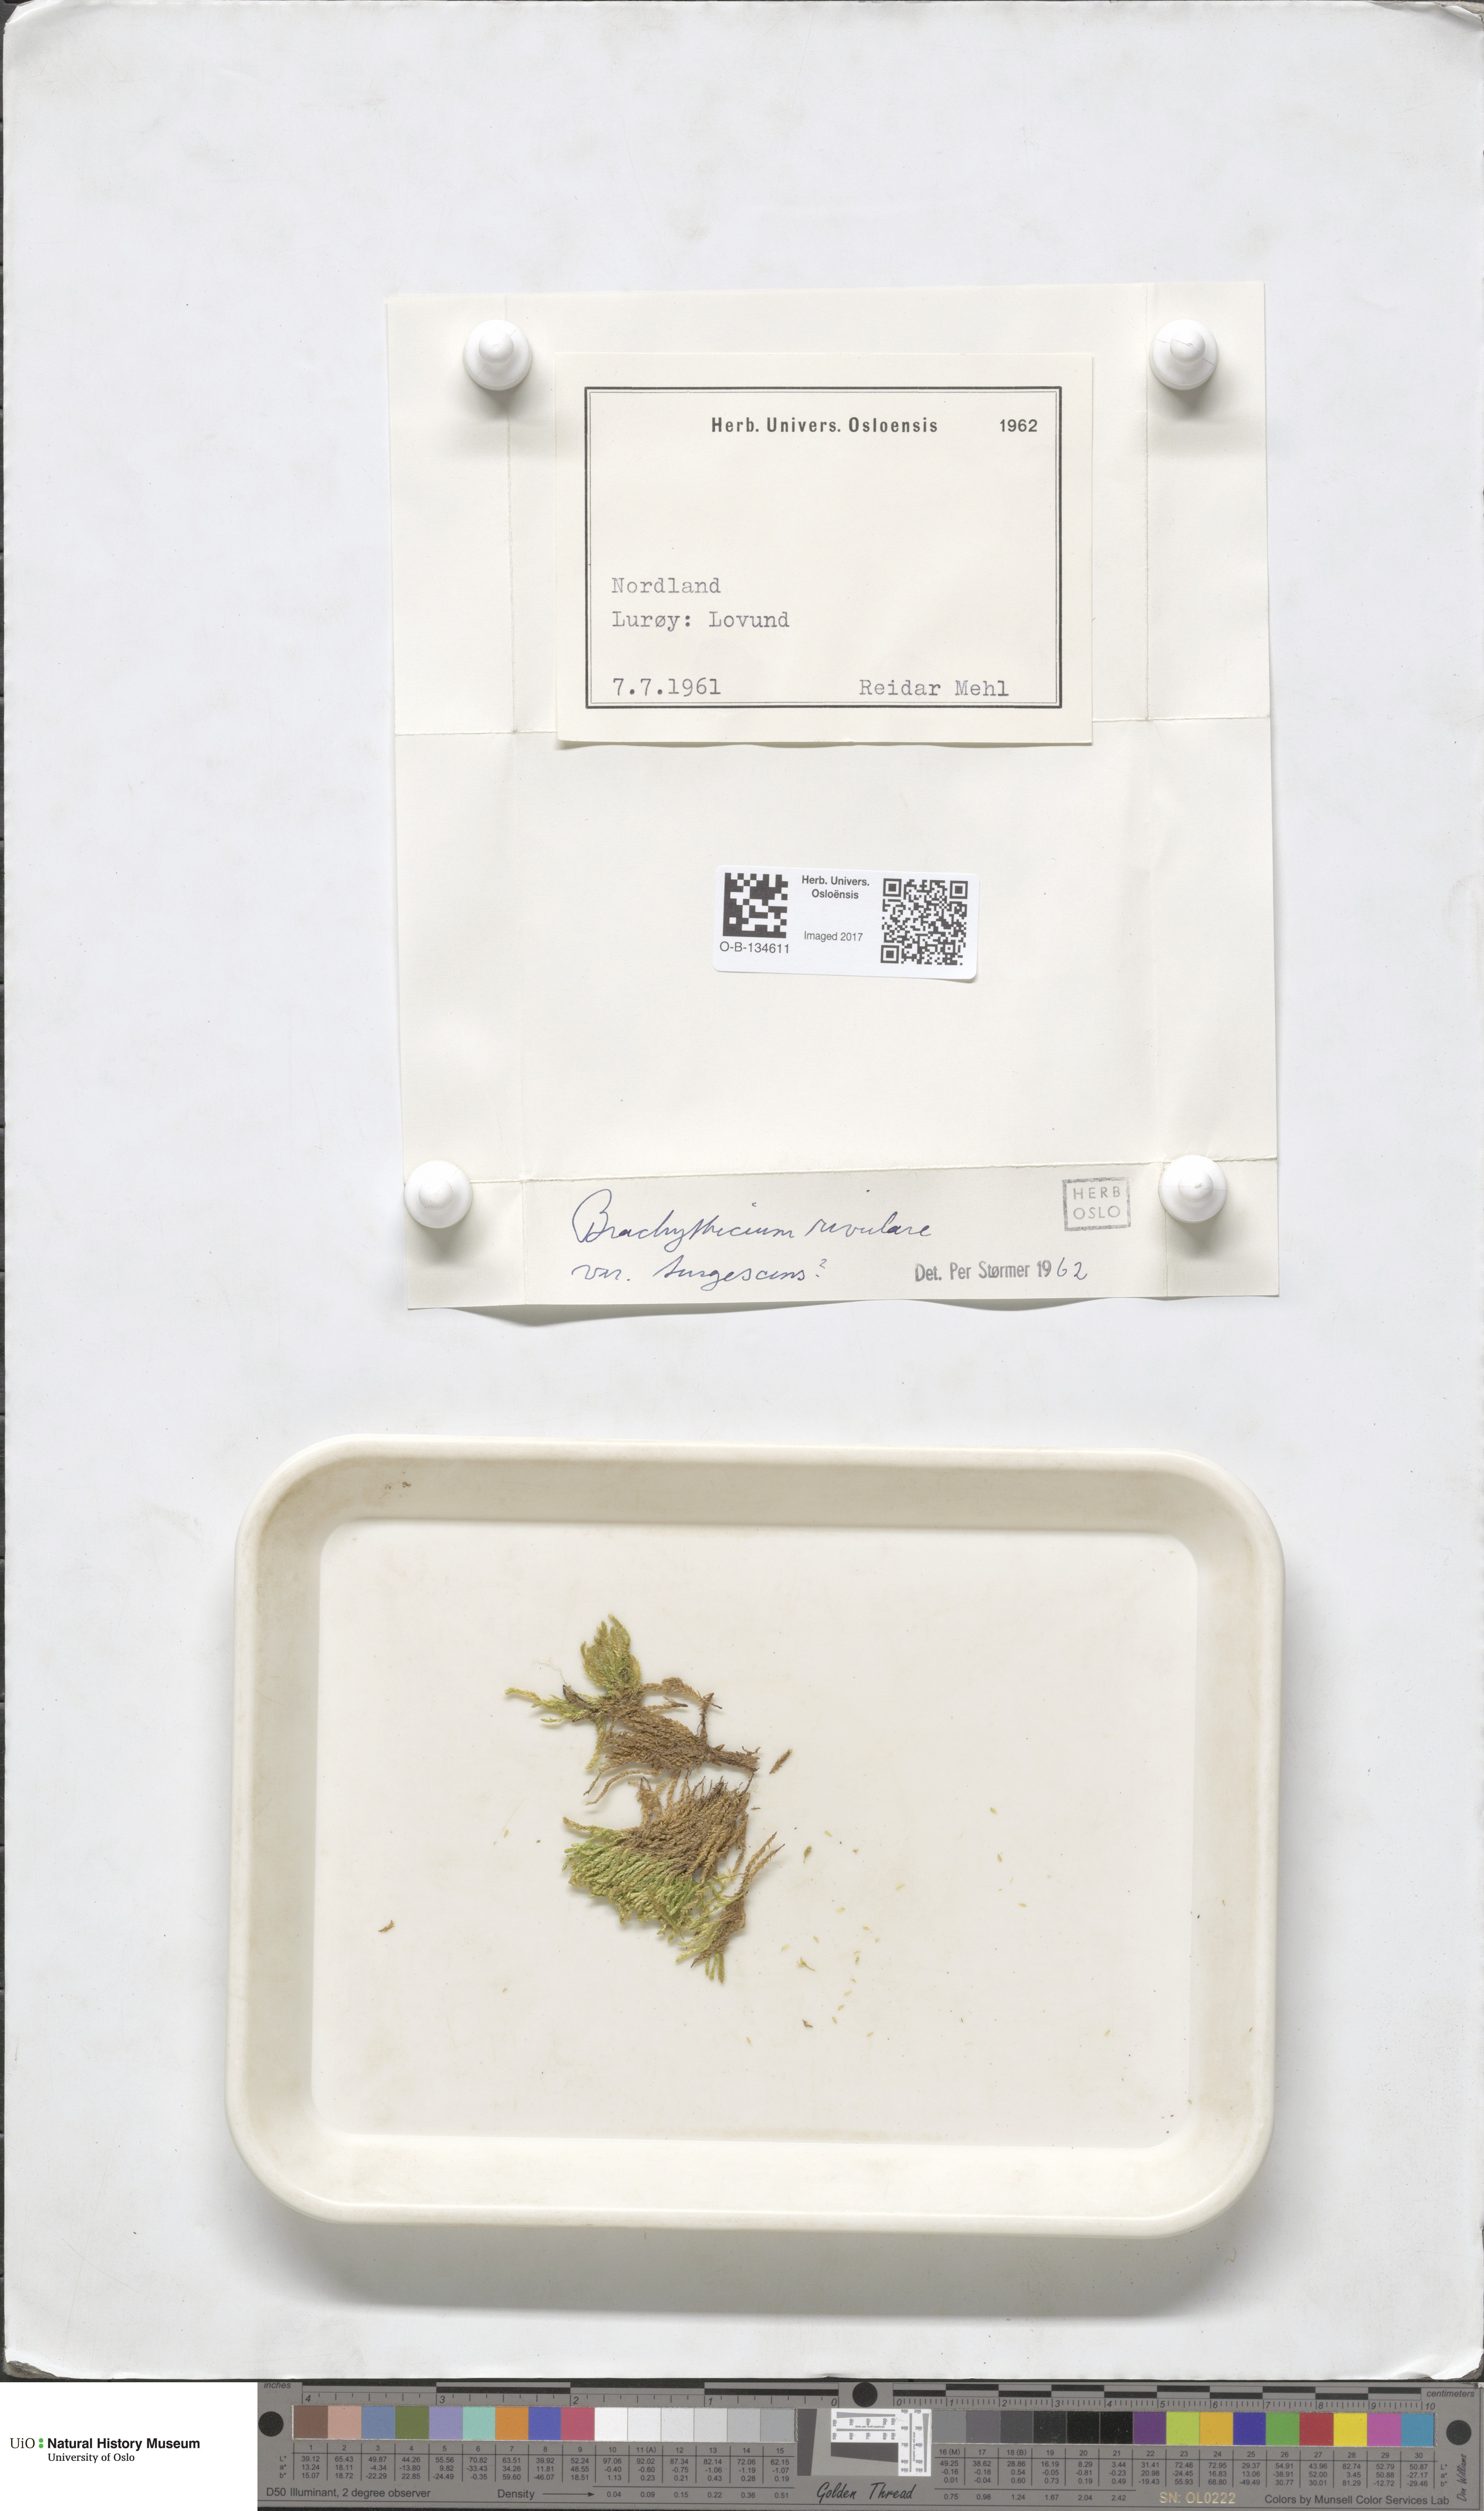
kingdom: Plantae
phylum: Bryophyta
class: Bryopsida
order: Hypnales
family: Brachytheciaceae
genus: Brachythecium
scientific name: Brachythecium rivulare
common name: River ragged moss
